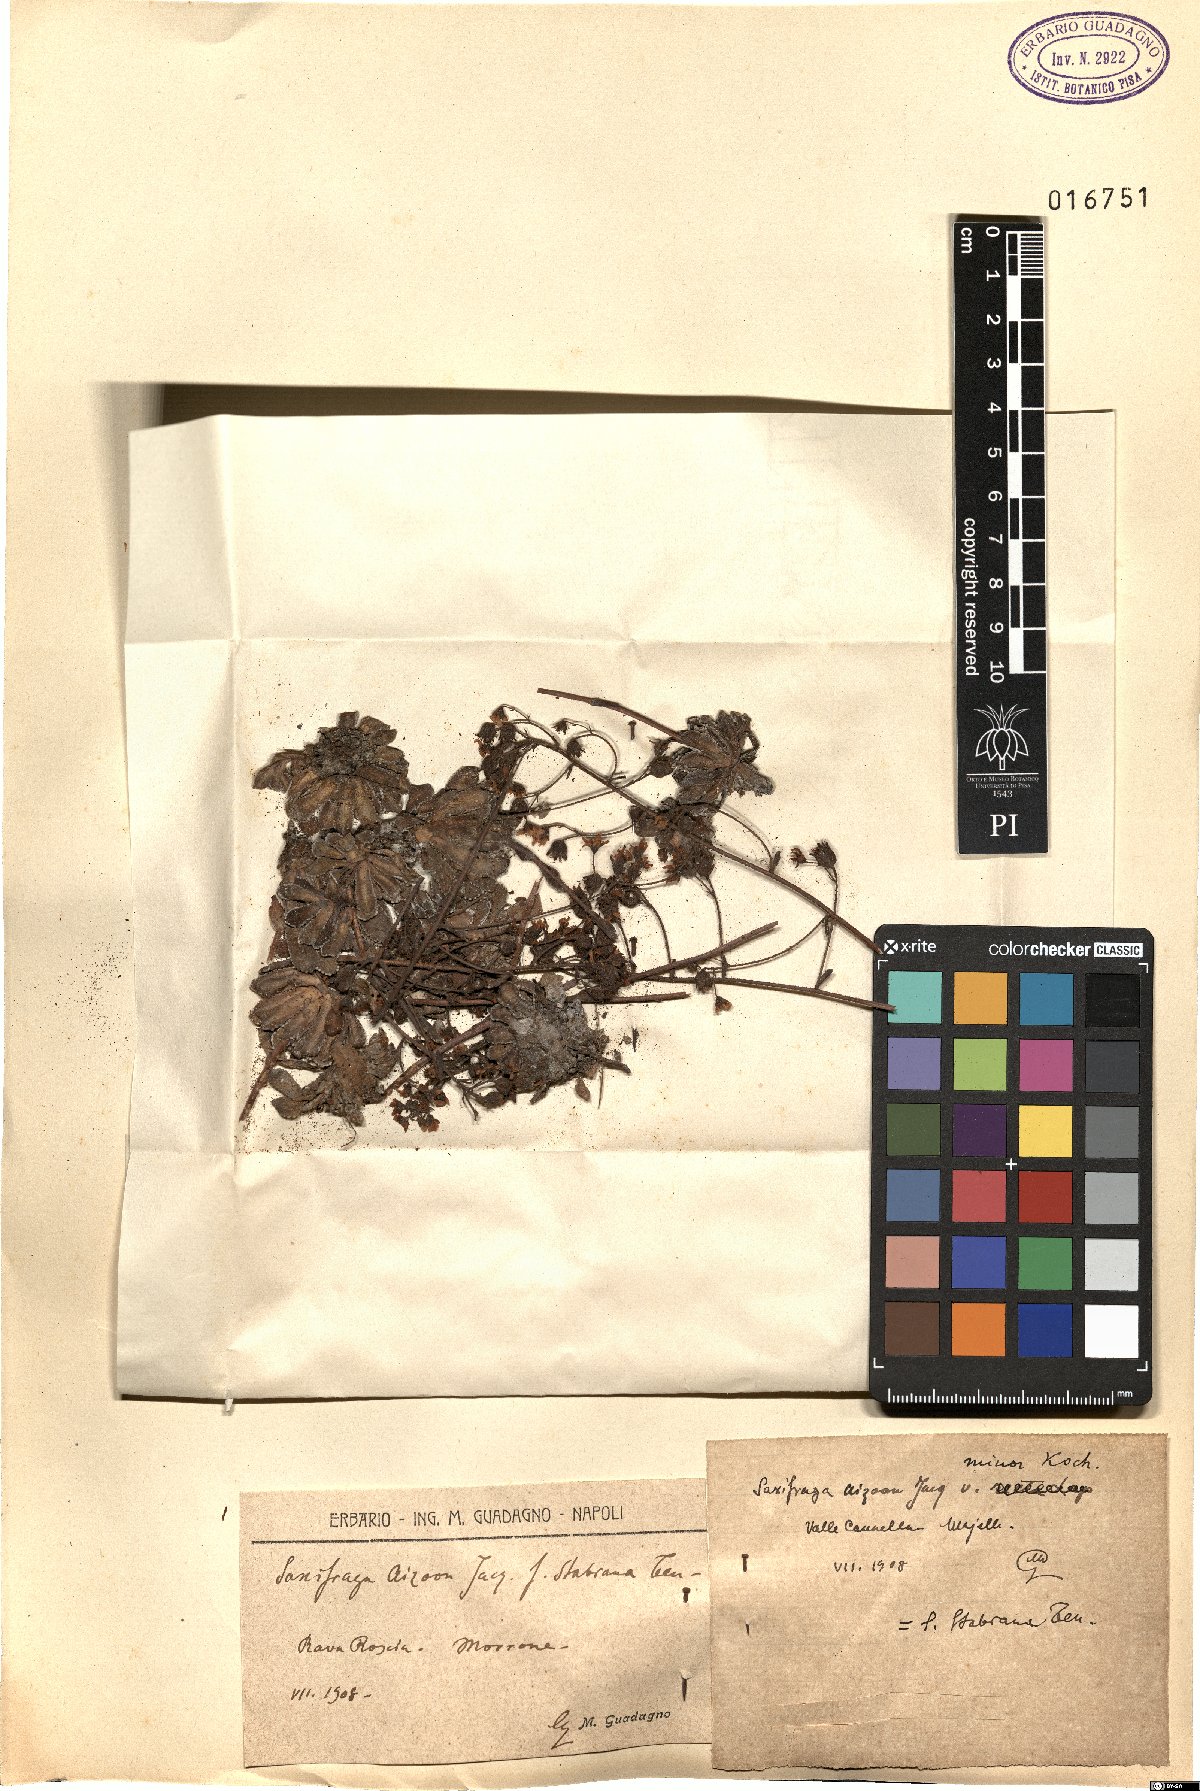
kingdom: Plantae
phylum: Tracheophyta
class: Magnoliopsida
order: Saxifragales
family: Saxifragaceae
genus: Saxifraga
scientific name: Saxifraga paniculata
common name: Livelong saxifrage
